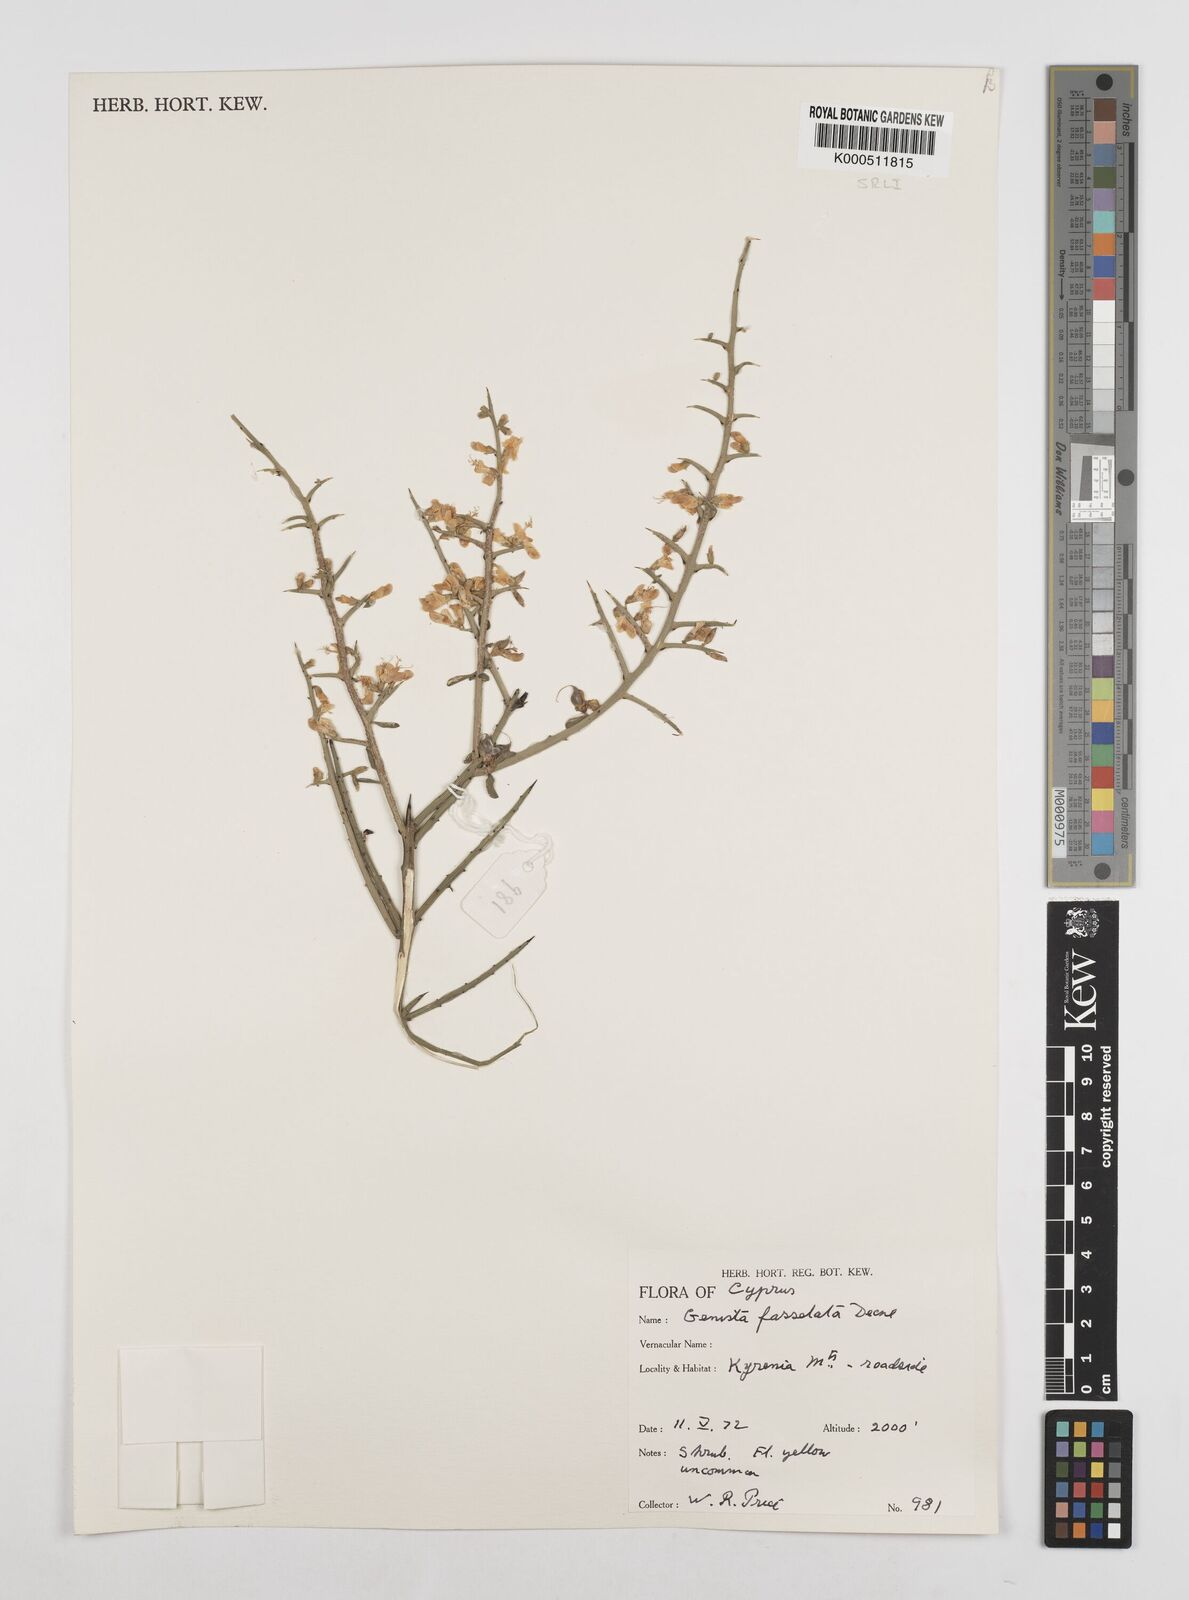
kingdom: Plantae
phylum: Tracheophyta
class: Magnoliopsida
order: Fabales
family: Fabaceae
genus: Genista
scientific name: Genista fasselata
